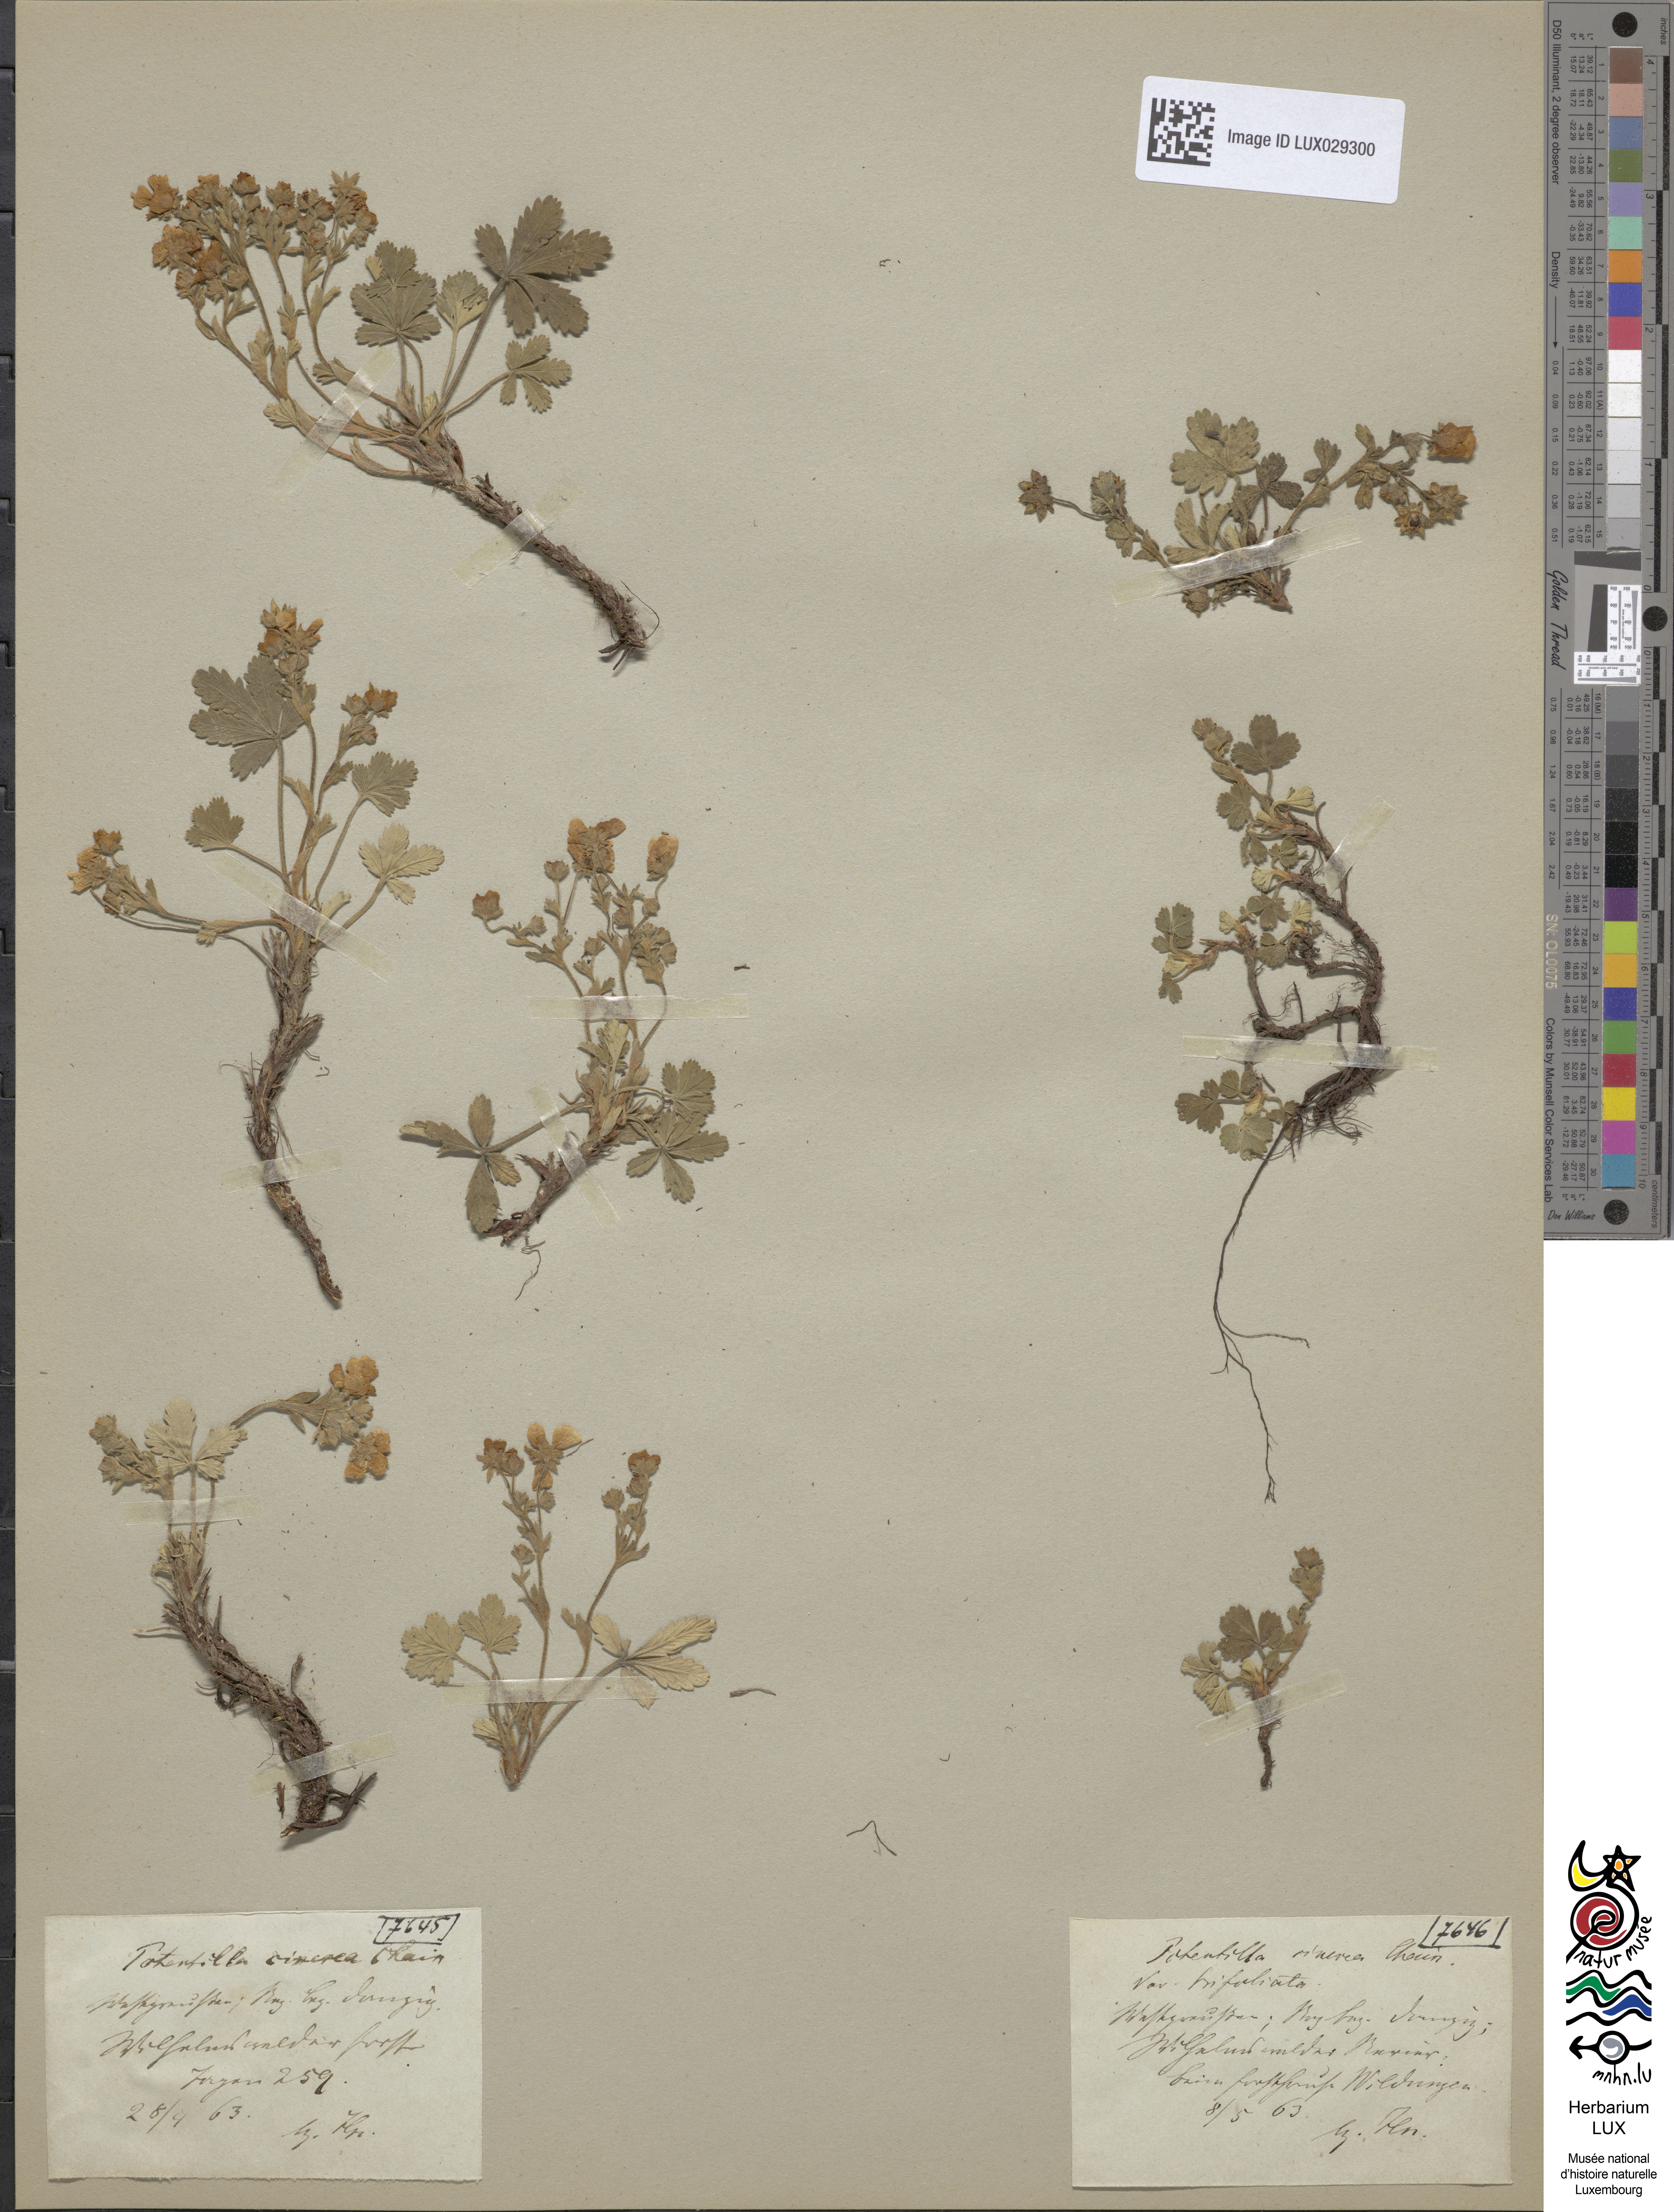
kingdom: Plantae
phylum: Tracheophyta
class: Magnoliopsida
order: Rosales
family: Rosaceae
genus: Potentilla
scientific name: Potentilla cinerea
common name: Ashy cinquefoil
